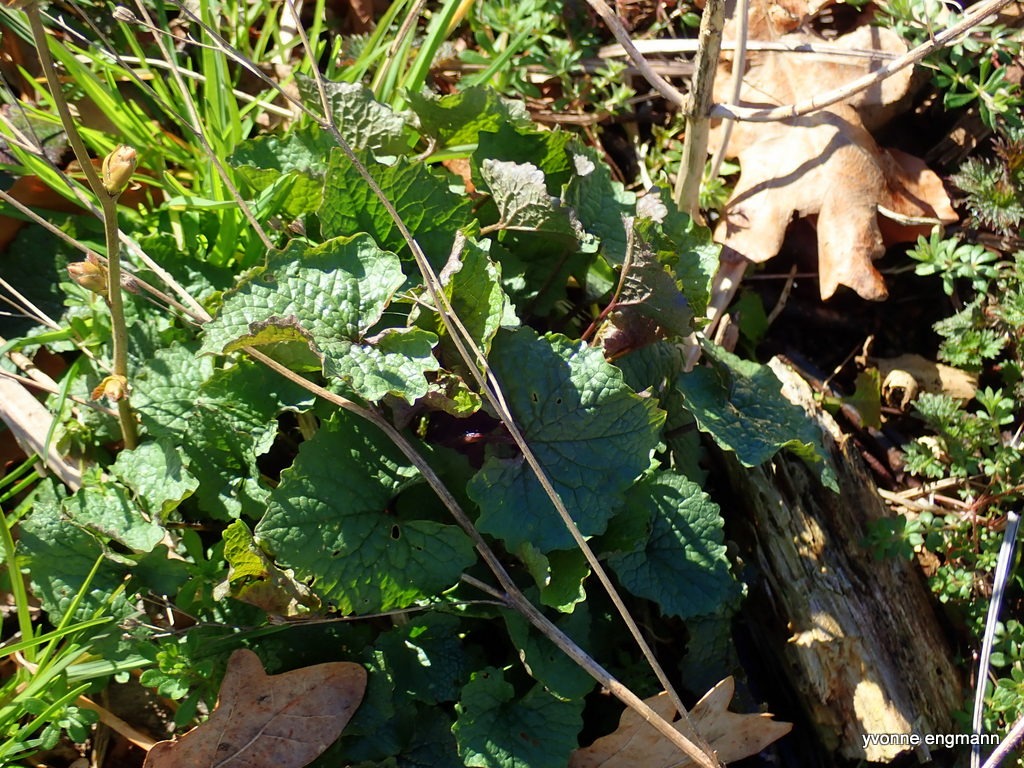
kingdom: Plantae
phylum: Tracheophyta
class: Magnoliopsida
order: Brassicales
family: Brassicaceae
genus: Alliaria
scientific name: Alliaria petiolata
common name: Løgkarse
